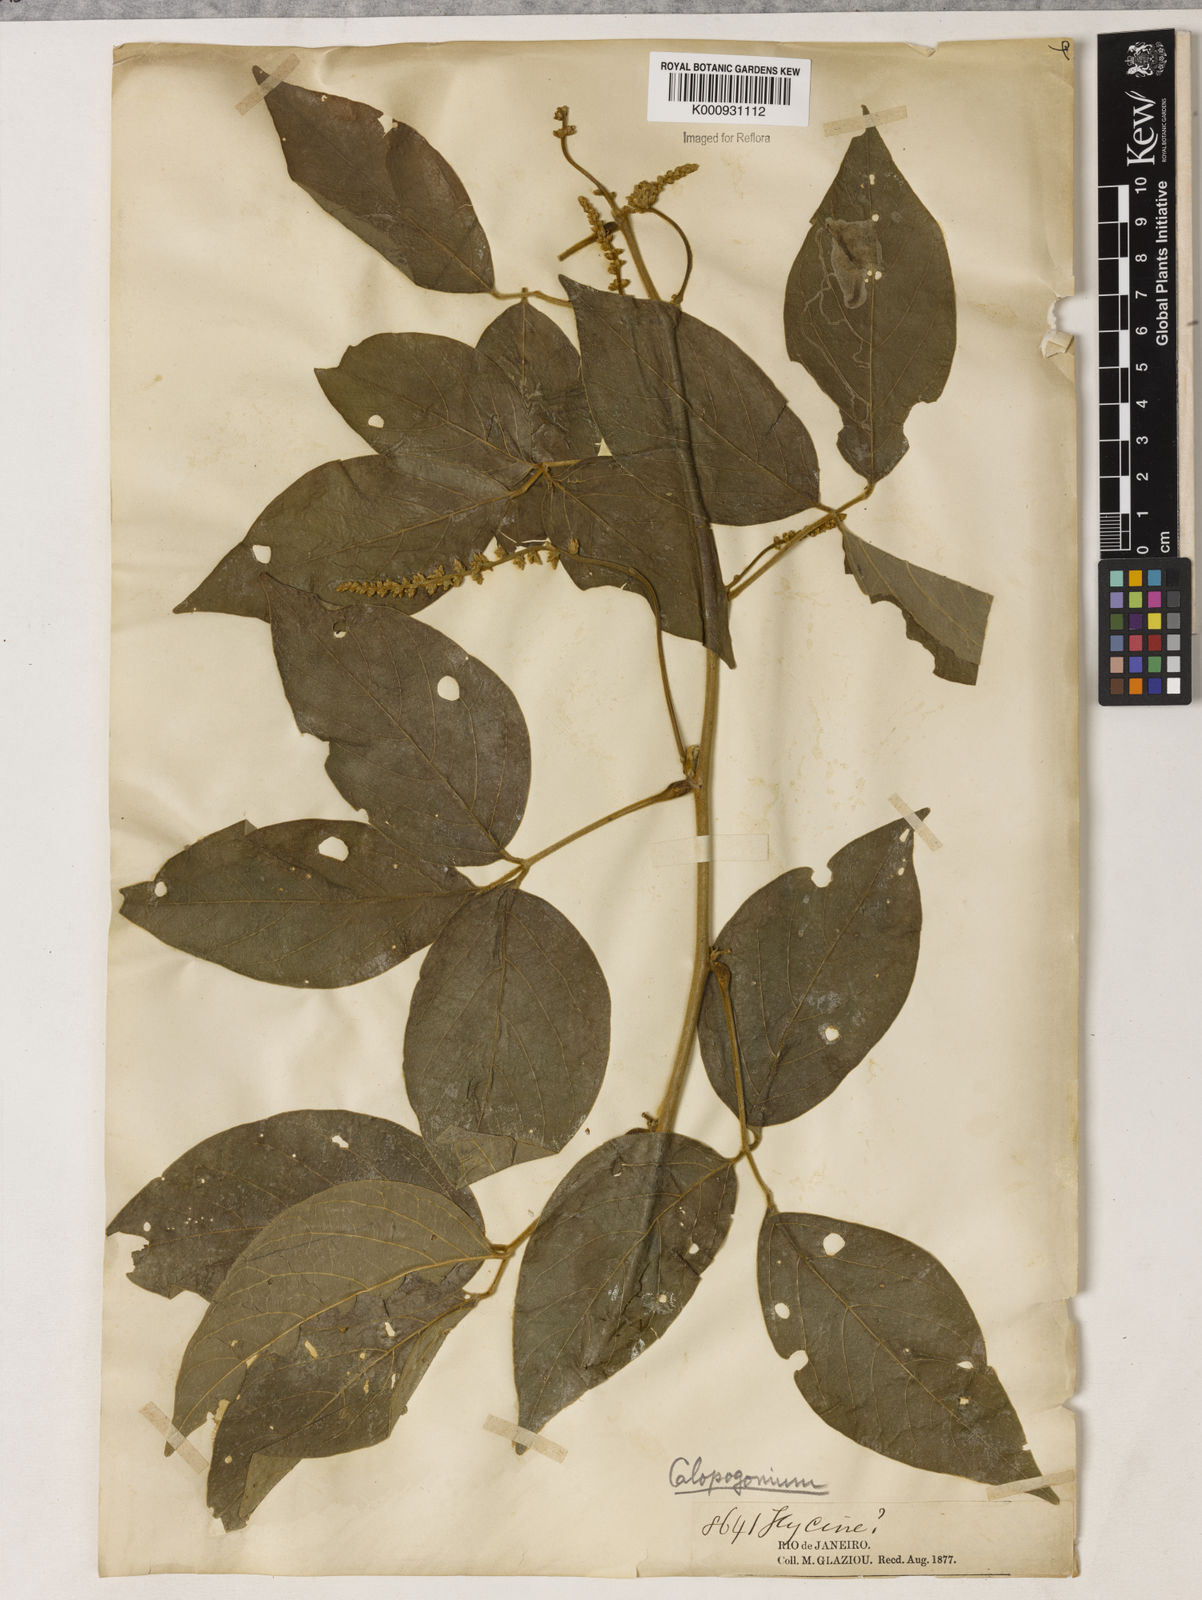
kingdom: Plantae
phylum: Tracheophyta
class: Magnoliopsida
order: Fabales
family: Fabaceae
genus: Calopogonium
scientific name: Calopogonium
